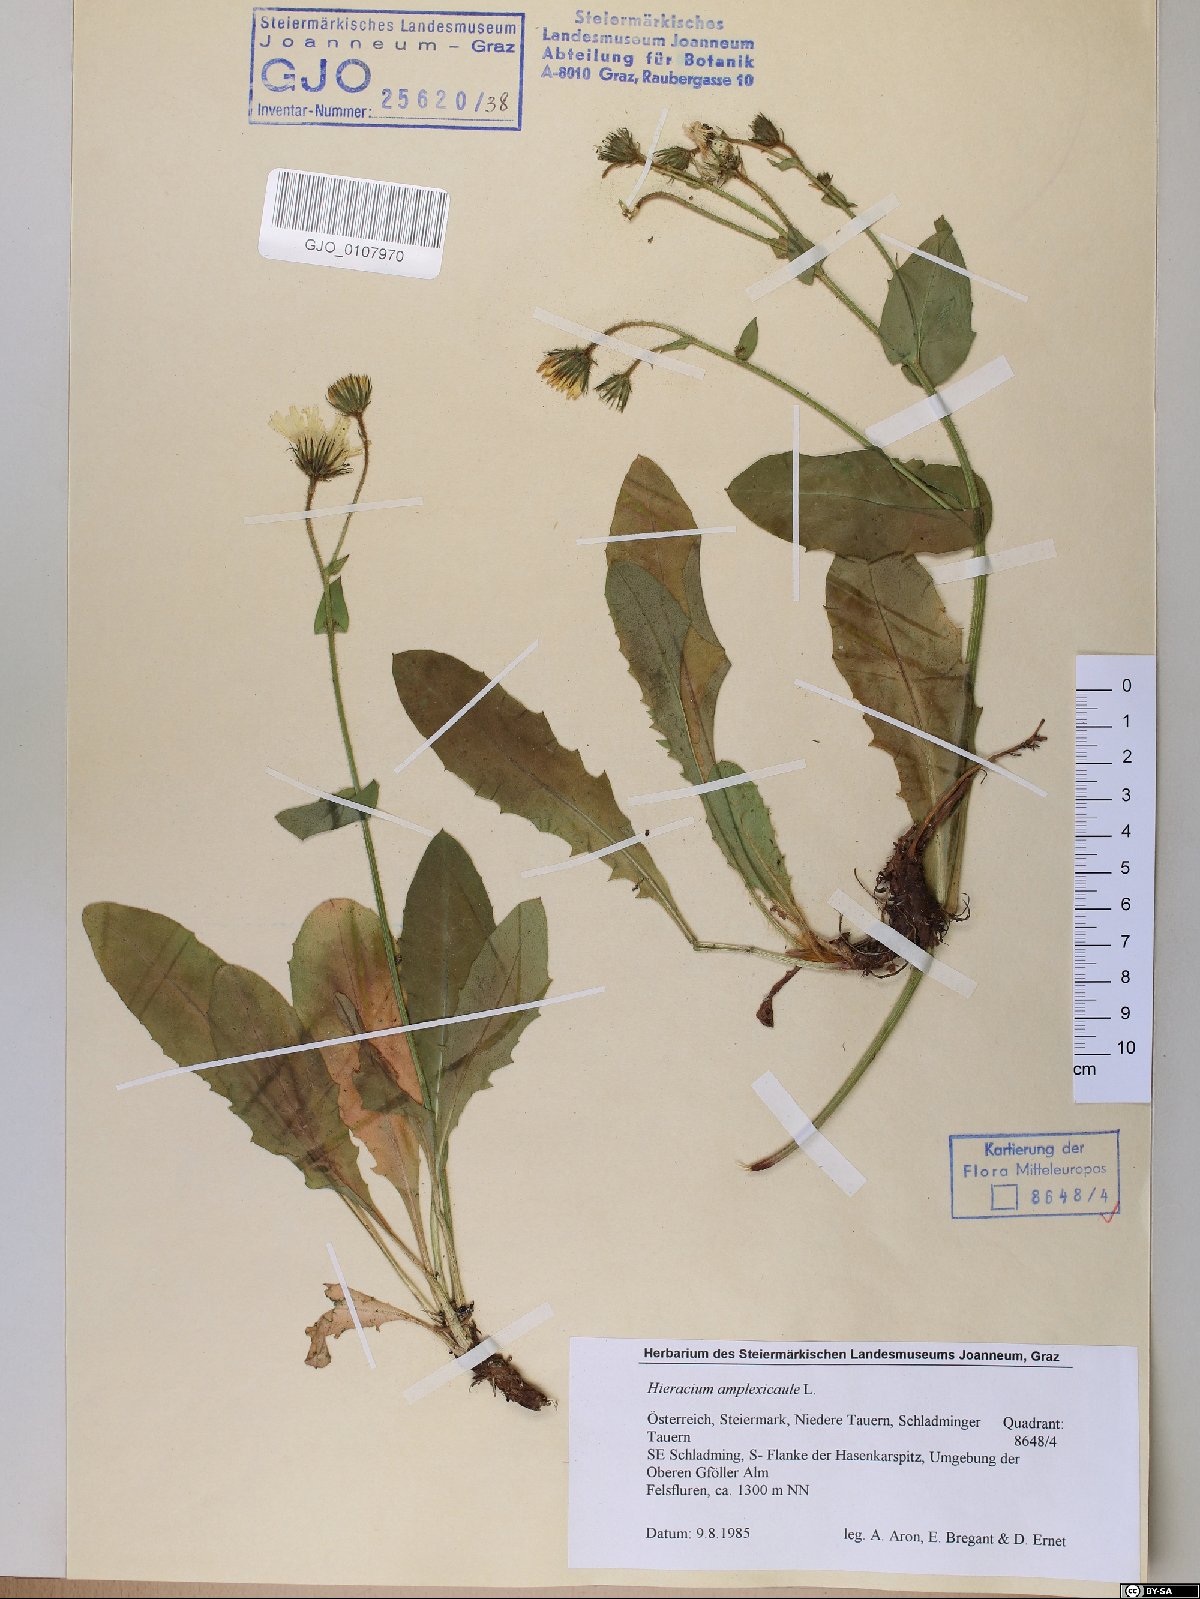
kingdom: Plantae
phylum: Tracheophyta
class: Magnoliopsida
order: Asterales
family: Asteraceae
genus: Hieracium
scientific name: Hieracium amplexicaule
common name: Sticky hawkweed
